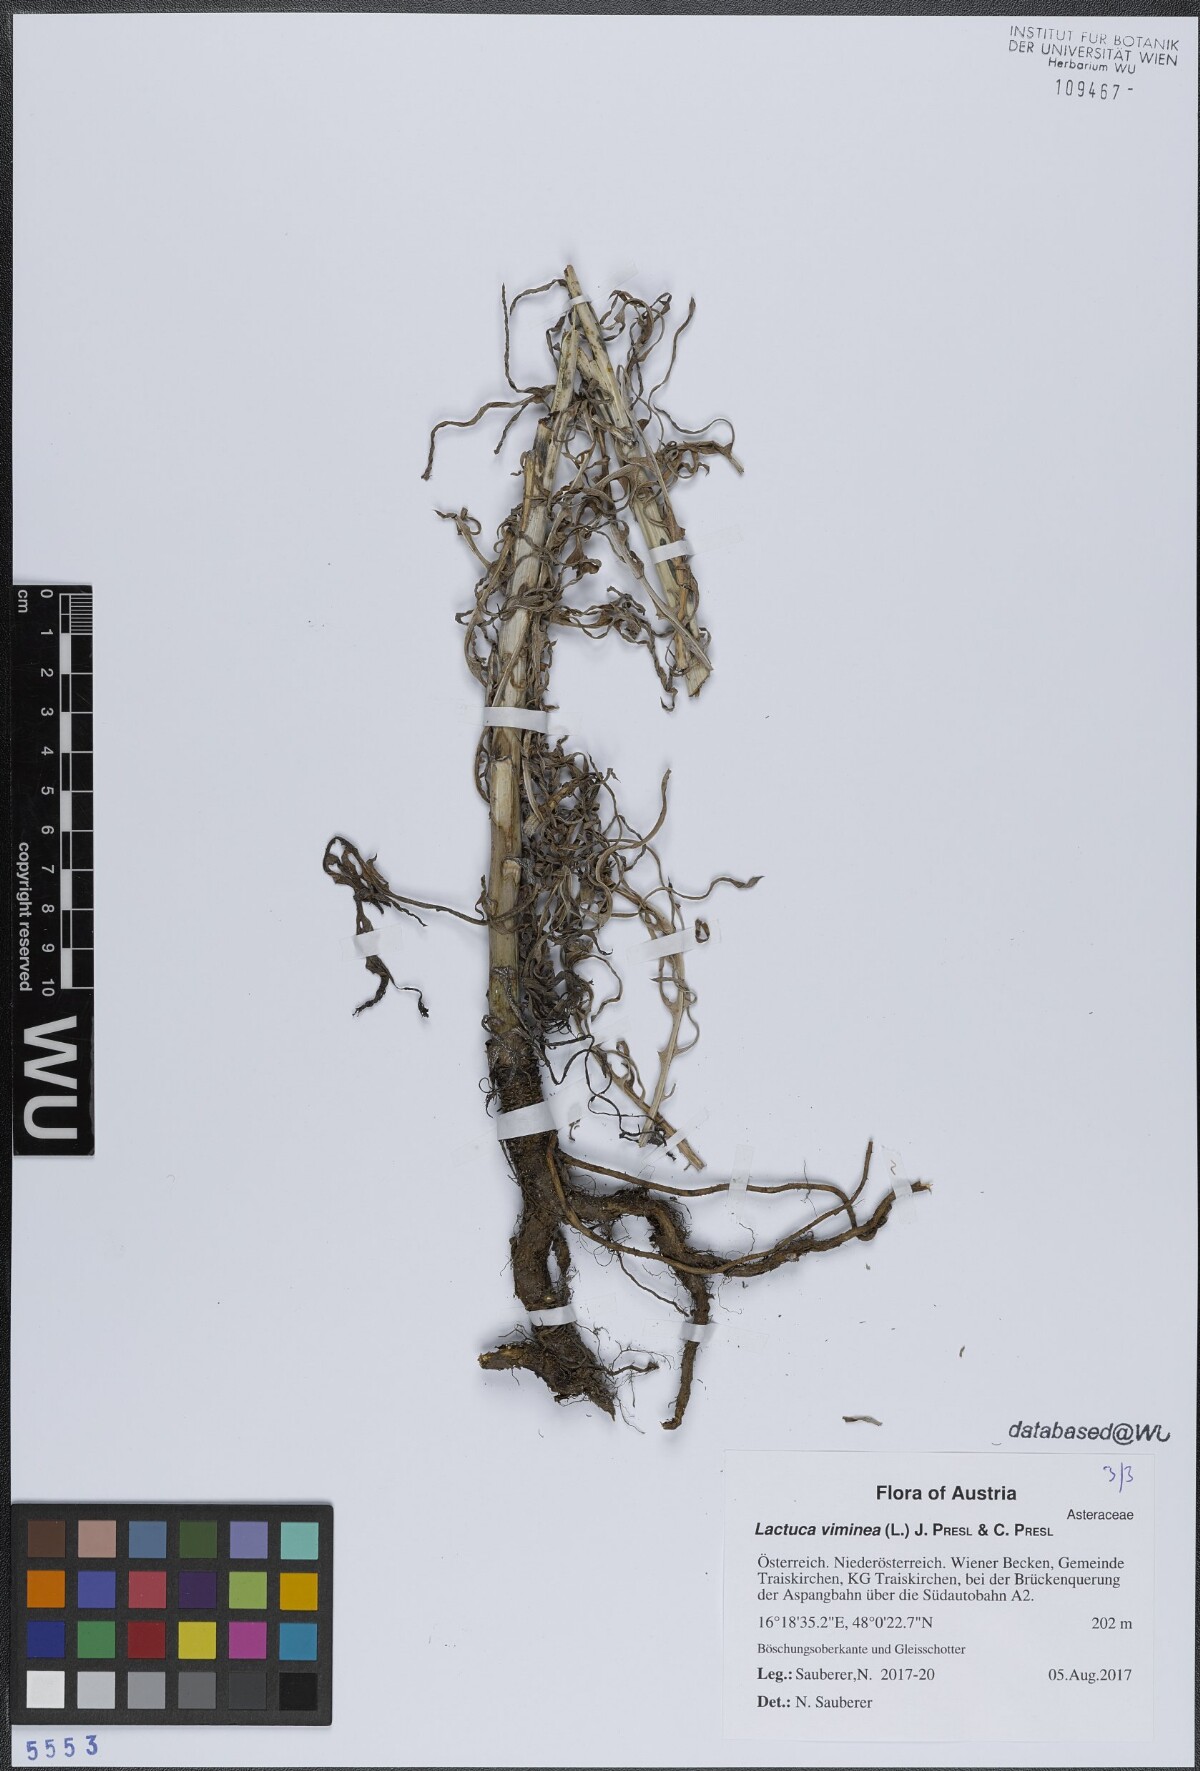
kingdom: Plantae
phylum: Tracheophyta
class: Magnoliopsida
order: Asterales
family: Asteraceae
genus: Lactuca
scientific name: Lactuca viminea
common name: Pliant lettuce
